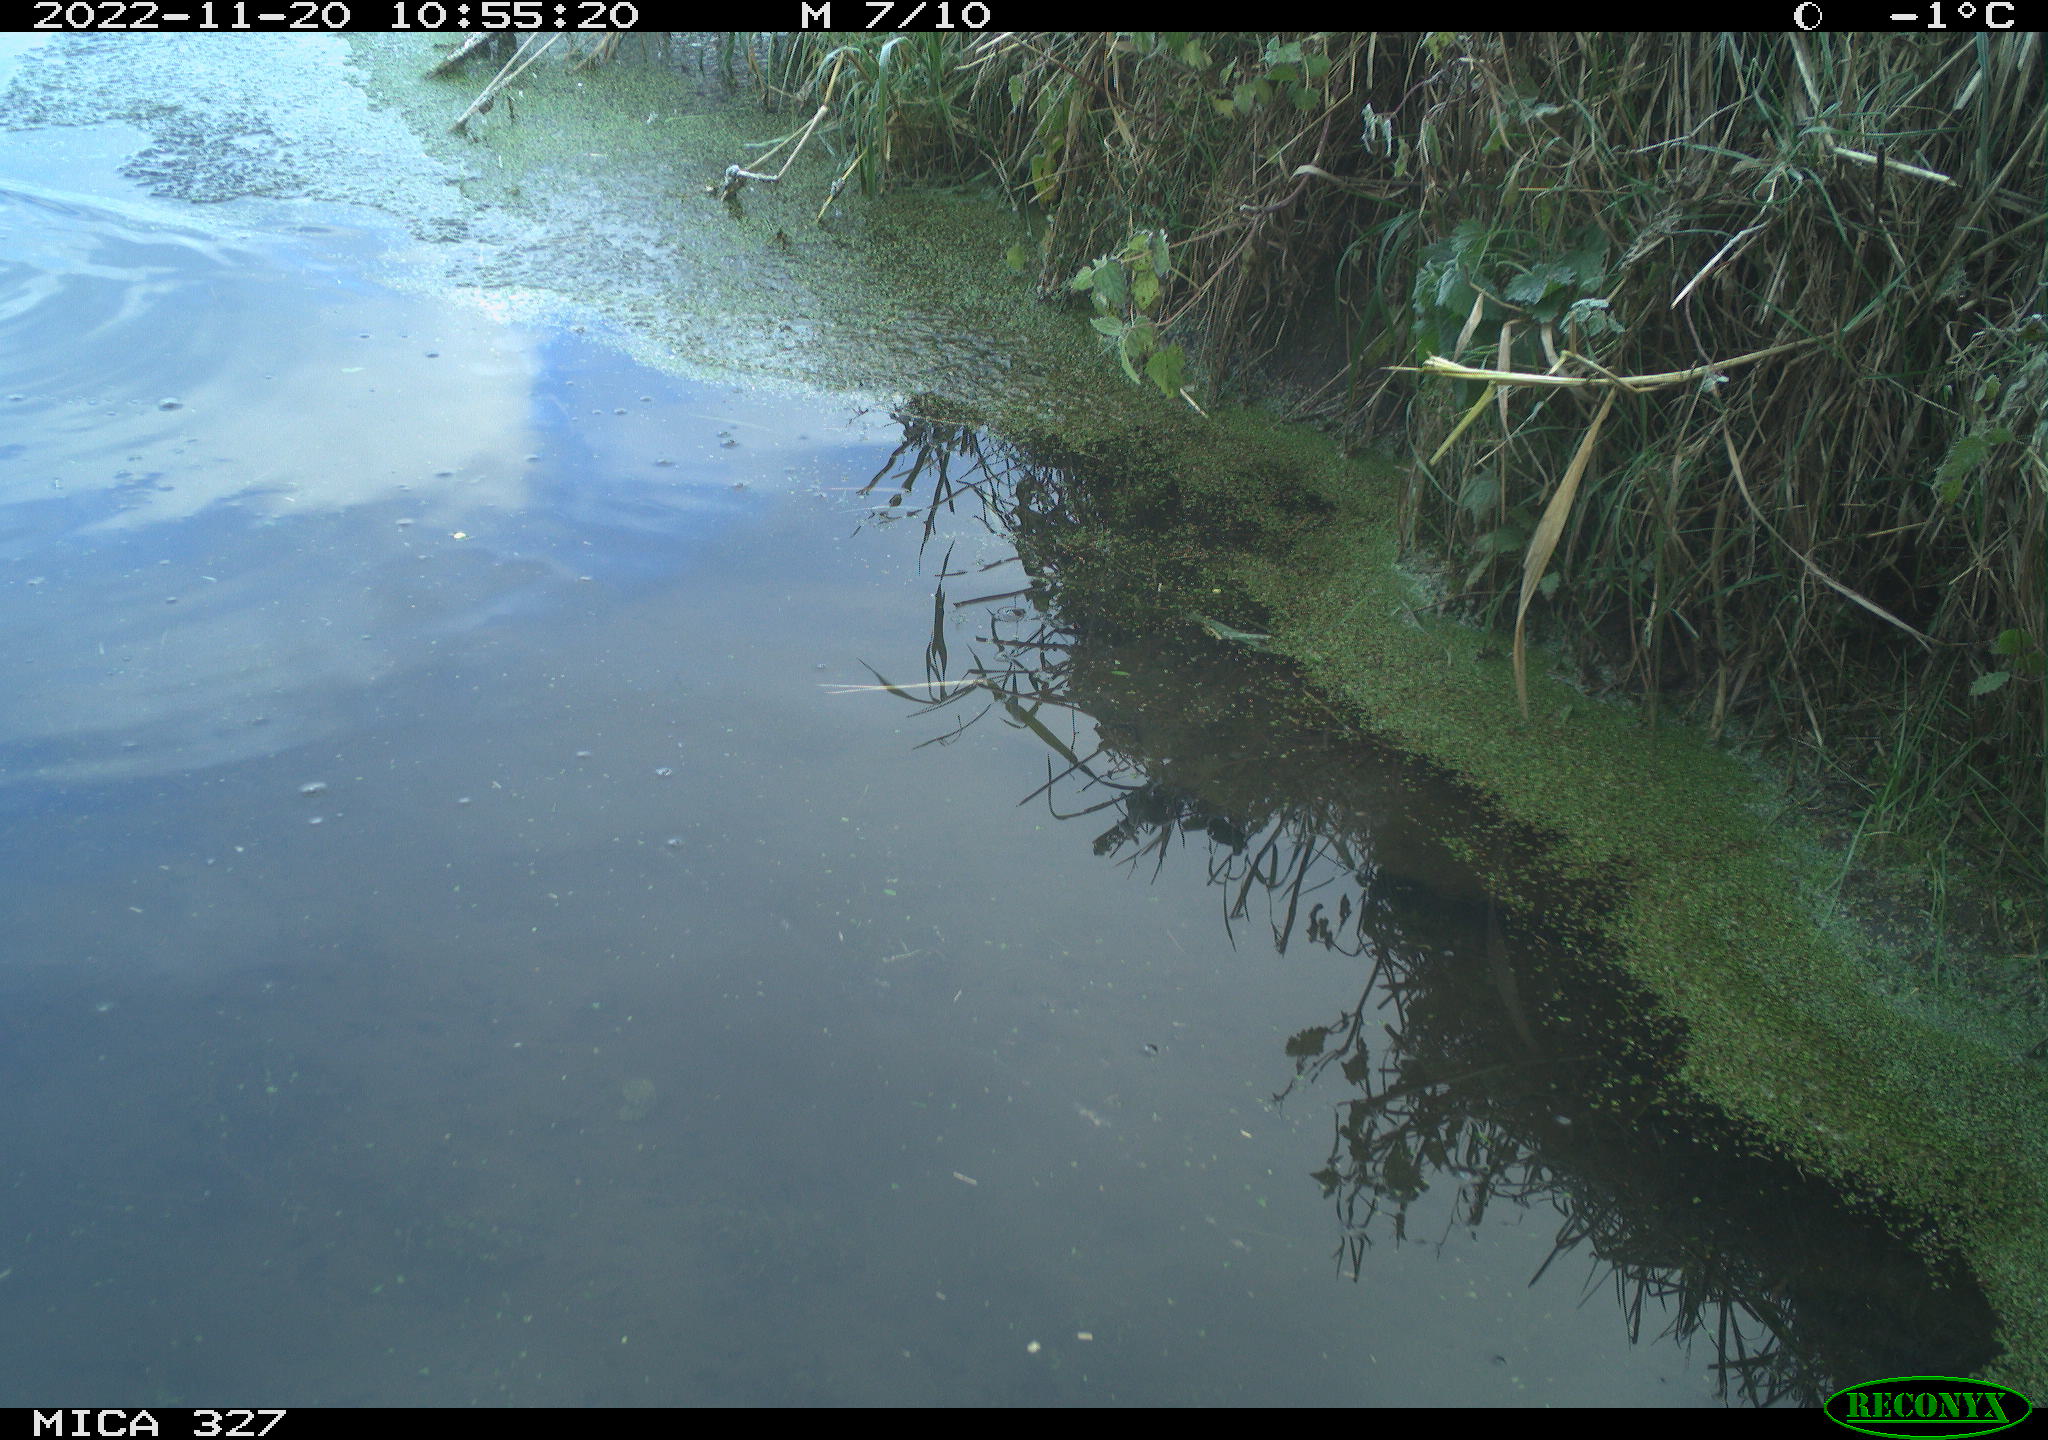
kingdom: Animalia
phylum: Chordata
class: Aves
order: Gruiformes
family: Rallidae
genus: Gallinula
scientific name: Gallinula chloropus
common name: Common moorhen
